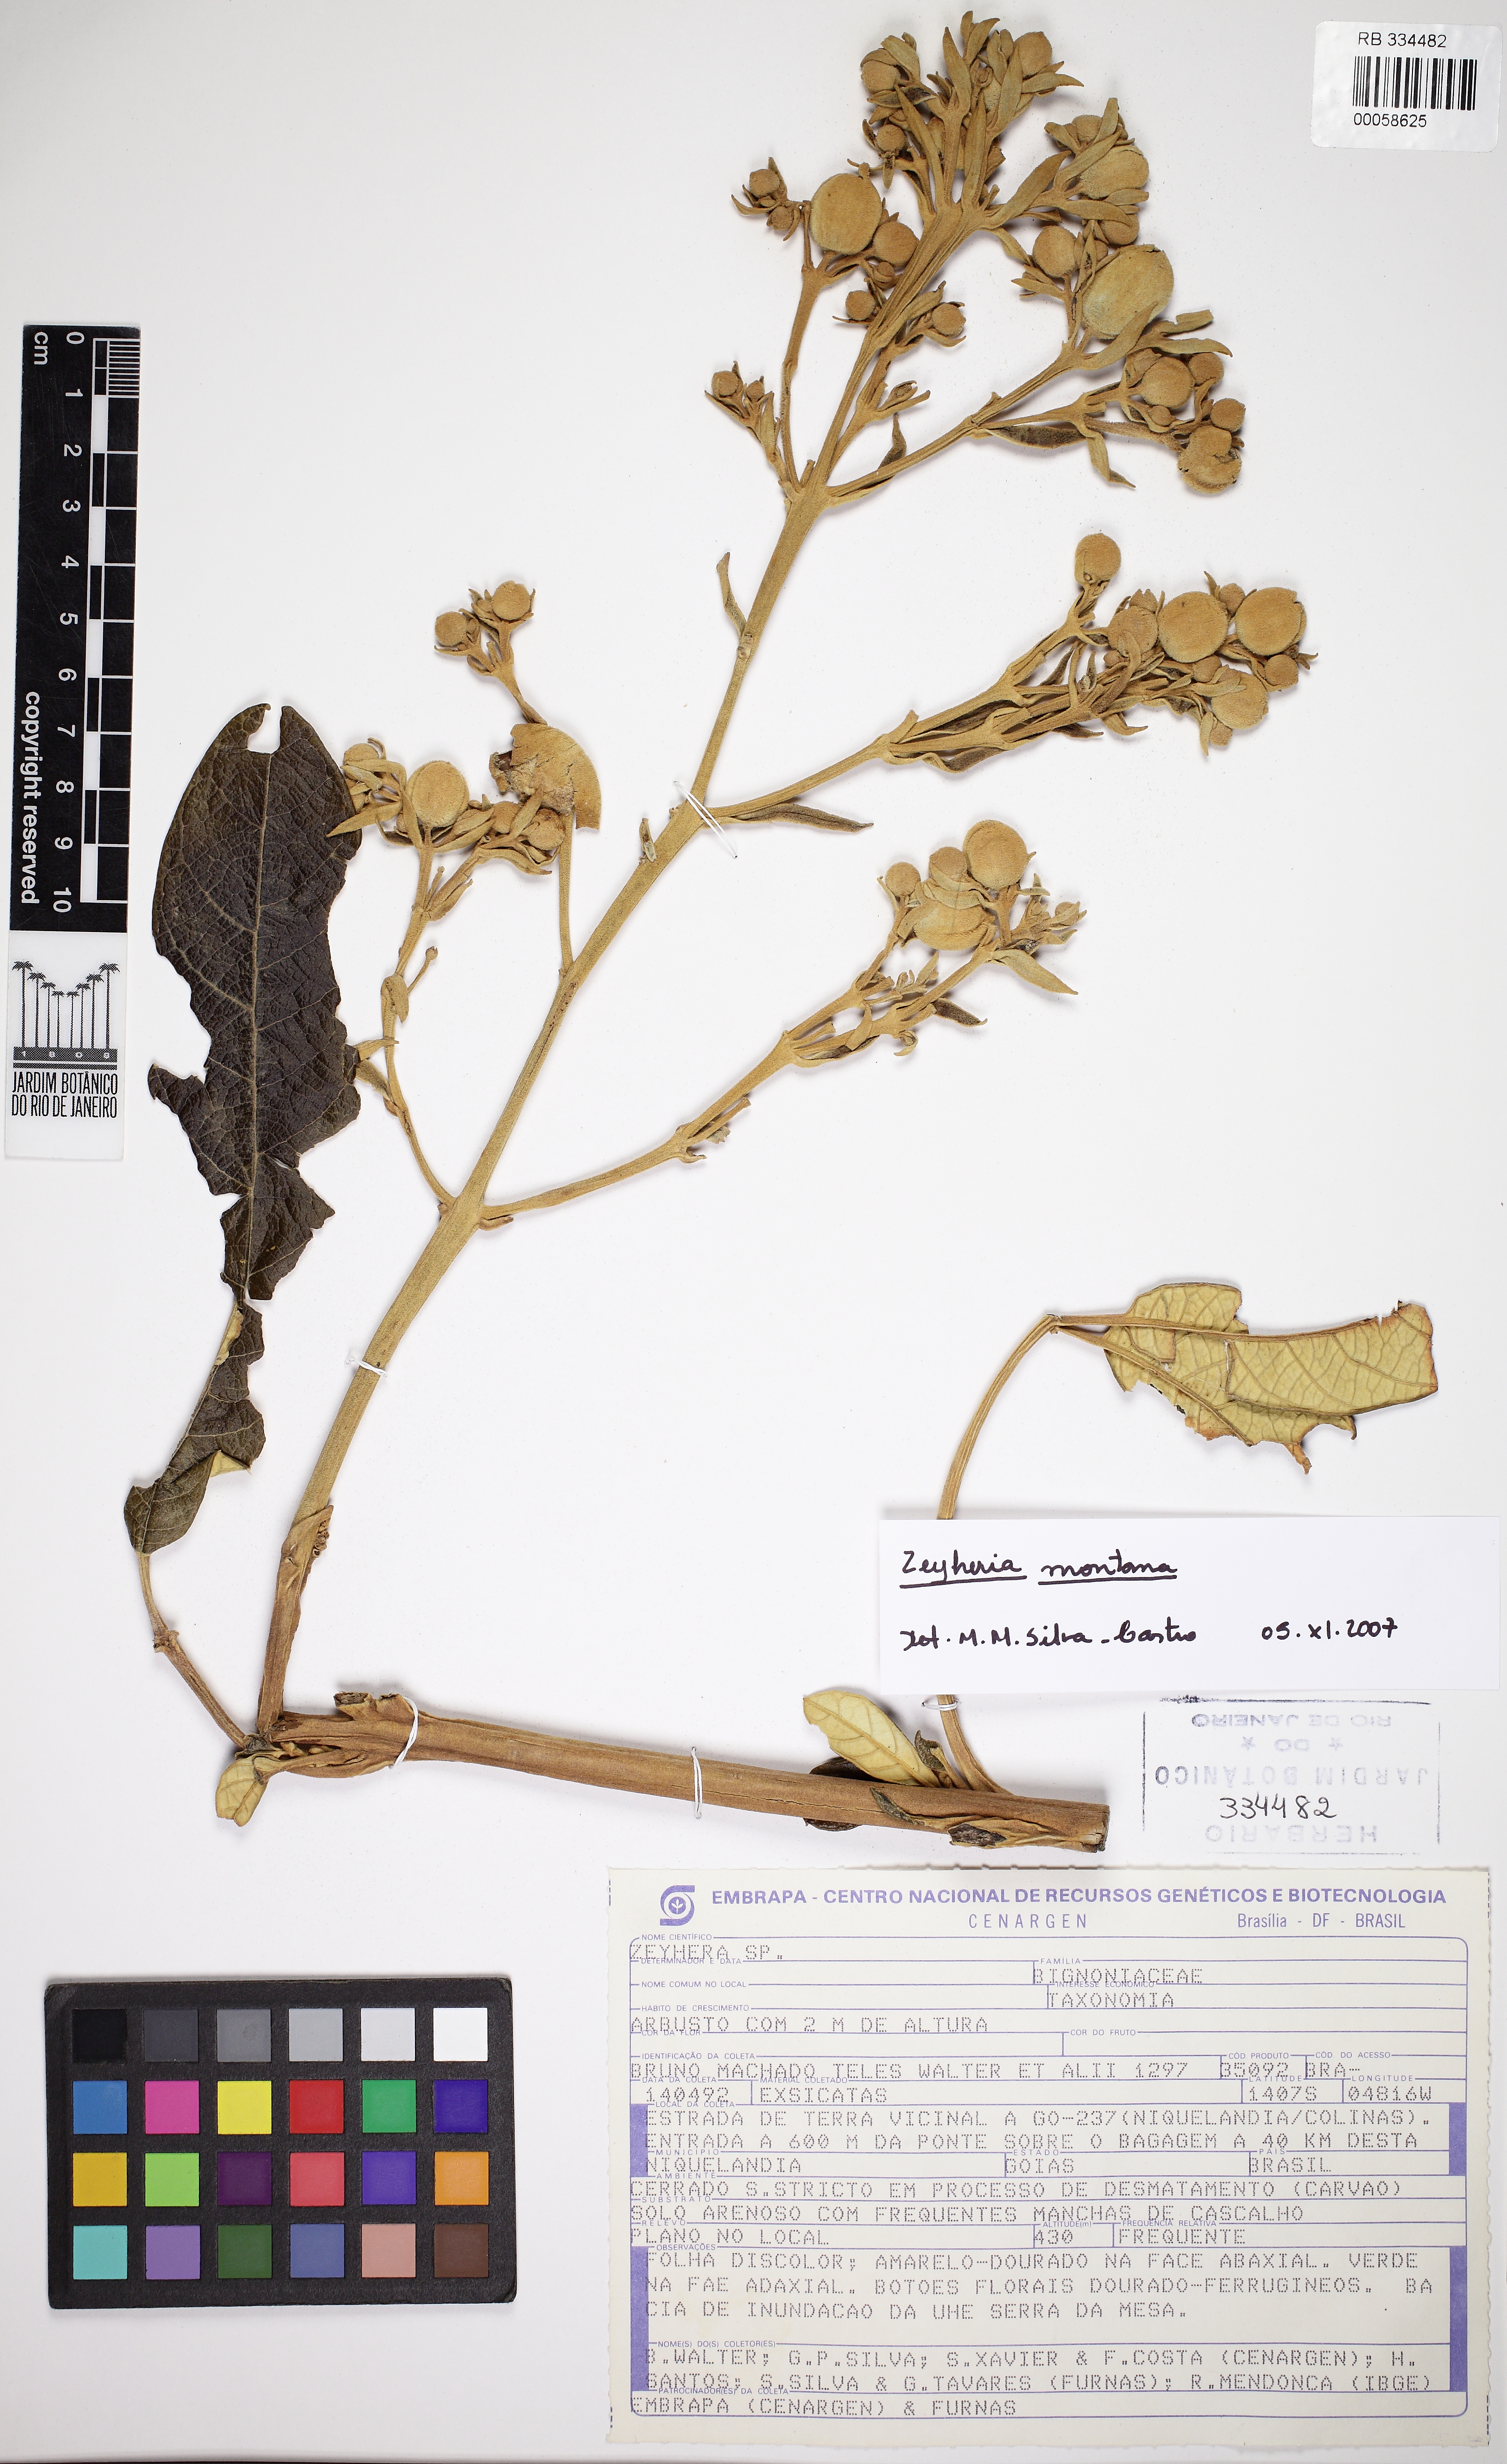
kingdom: Plantae
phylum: Tracheophyta
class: Magnoliopsida
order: Lamiales
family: Bignoniaceae
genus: Zeyheria
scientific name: Zeyheria montana
